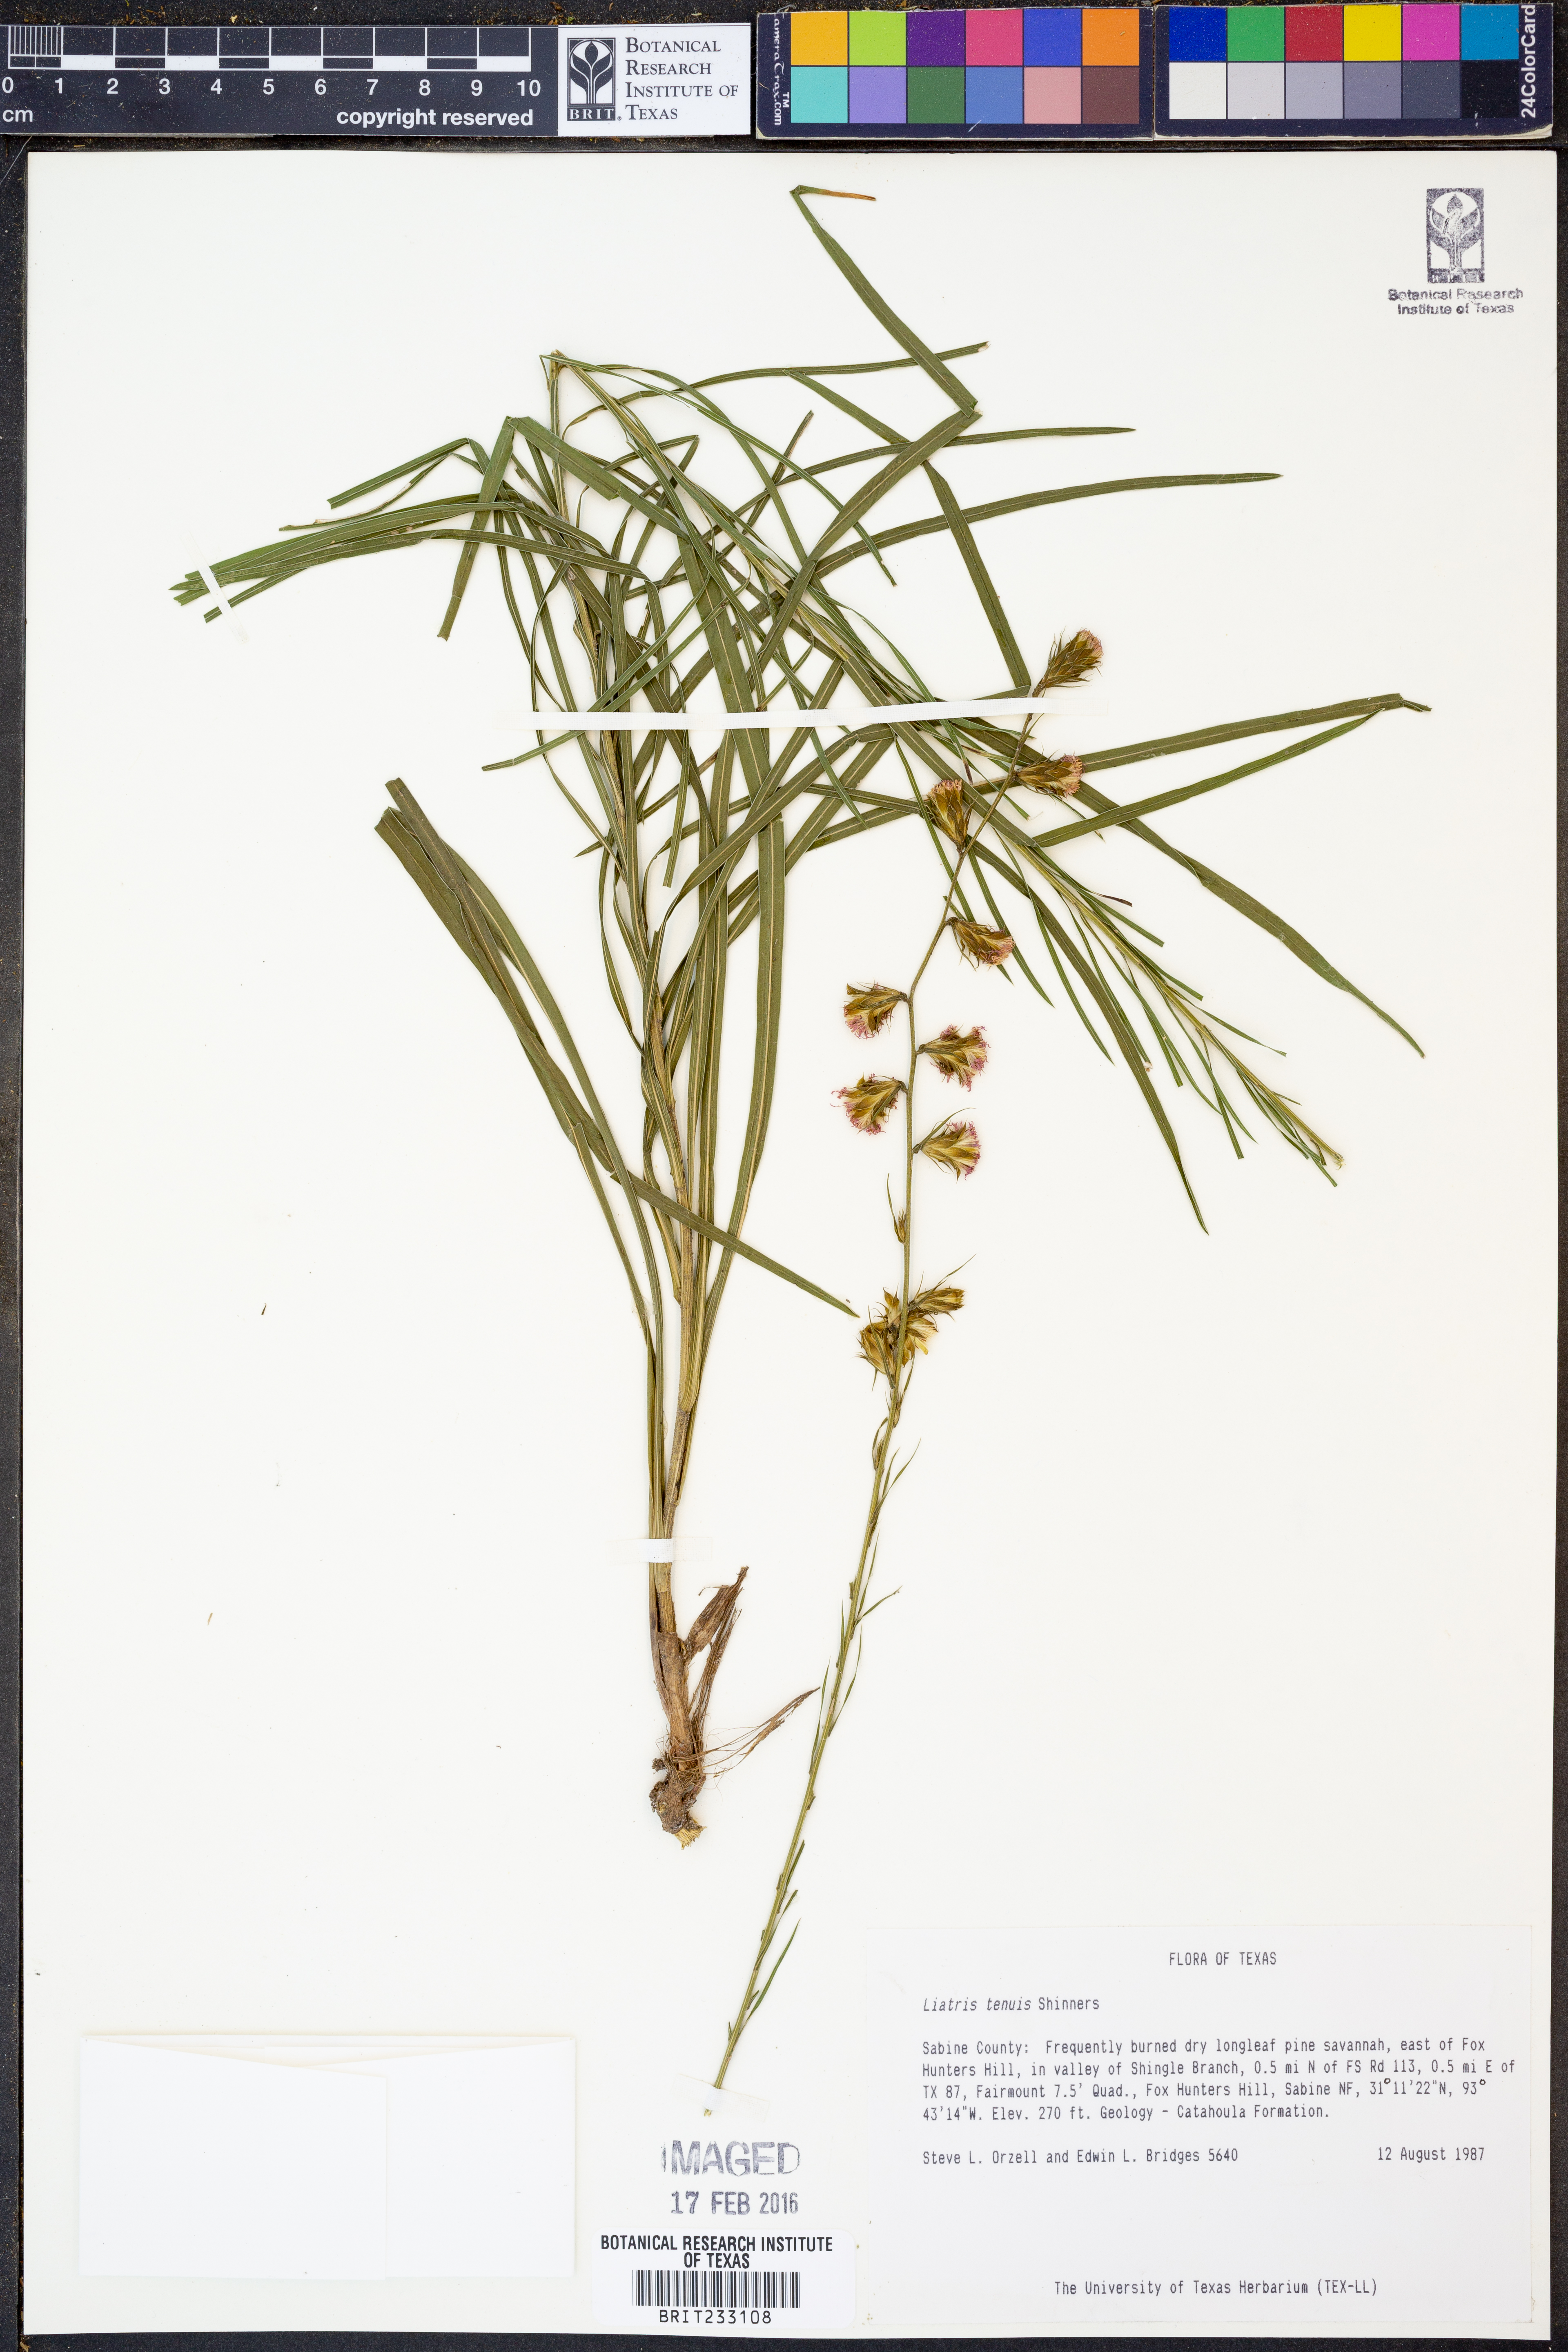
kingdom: Plantae
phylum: Tracheophyta
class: Magnoliopsida
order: Asterales
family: Asteraceae
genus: Liatris
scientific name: Liatris tenuis
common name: Shinner's gayfeather
